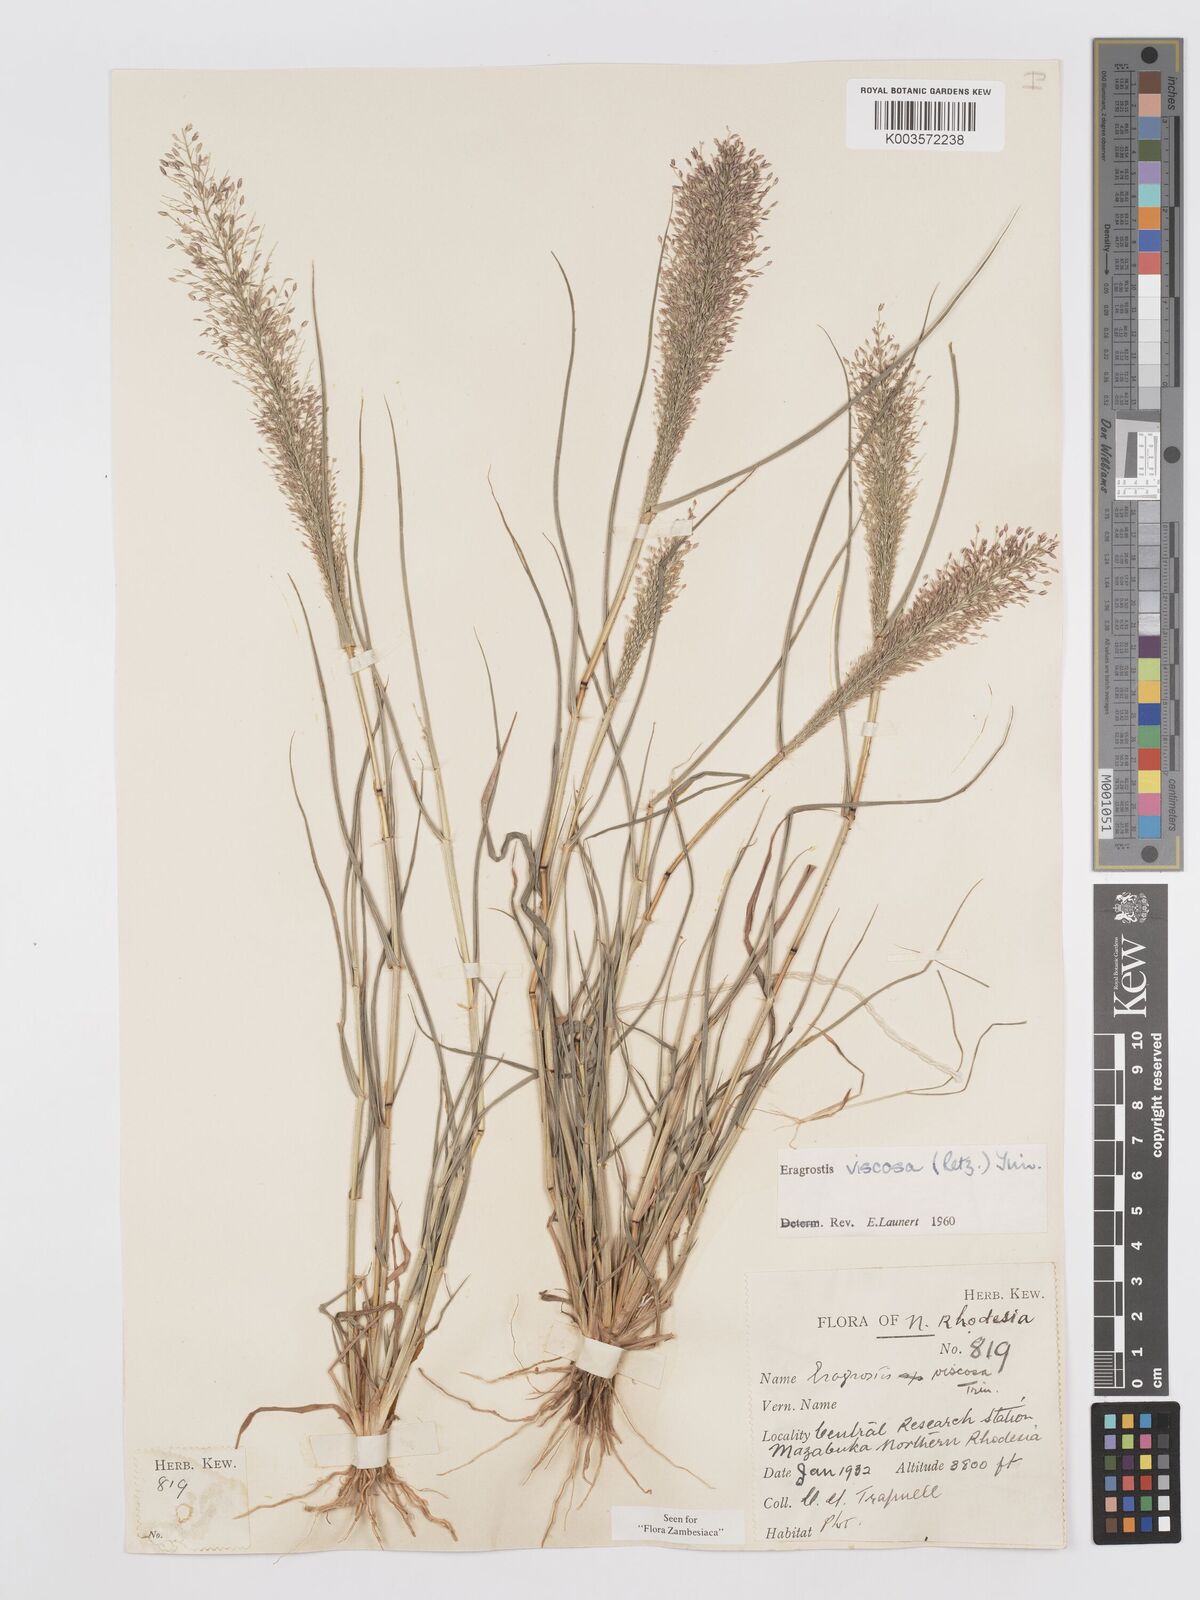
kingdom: Plantae
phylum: Tracheophyta
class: Liliopsida
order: Poales
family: Poaceae
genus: Eragrostis
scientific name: Eragrostis
